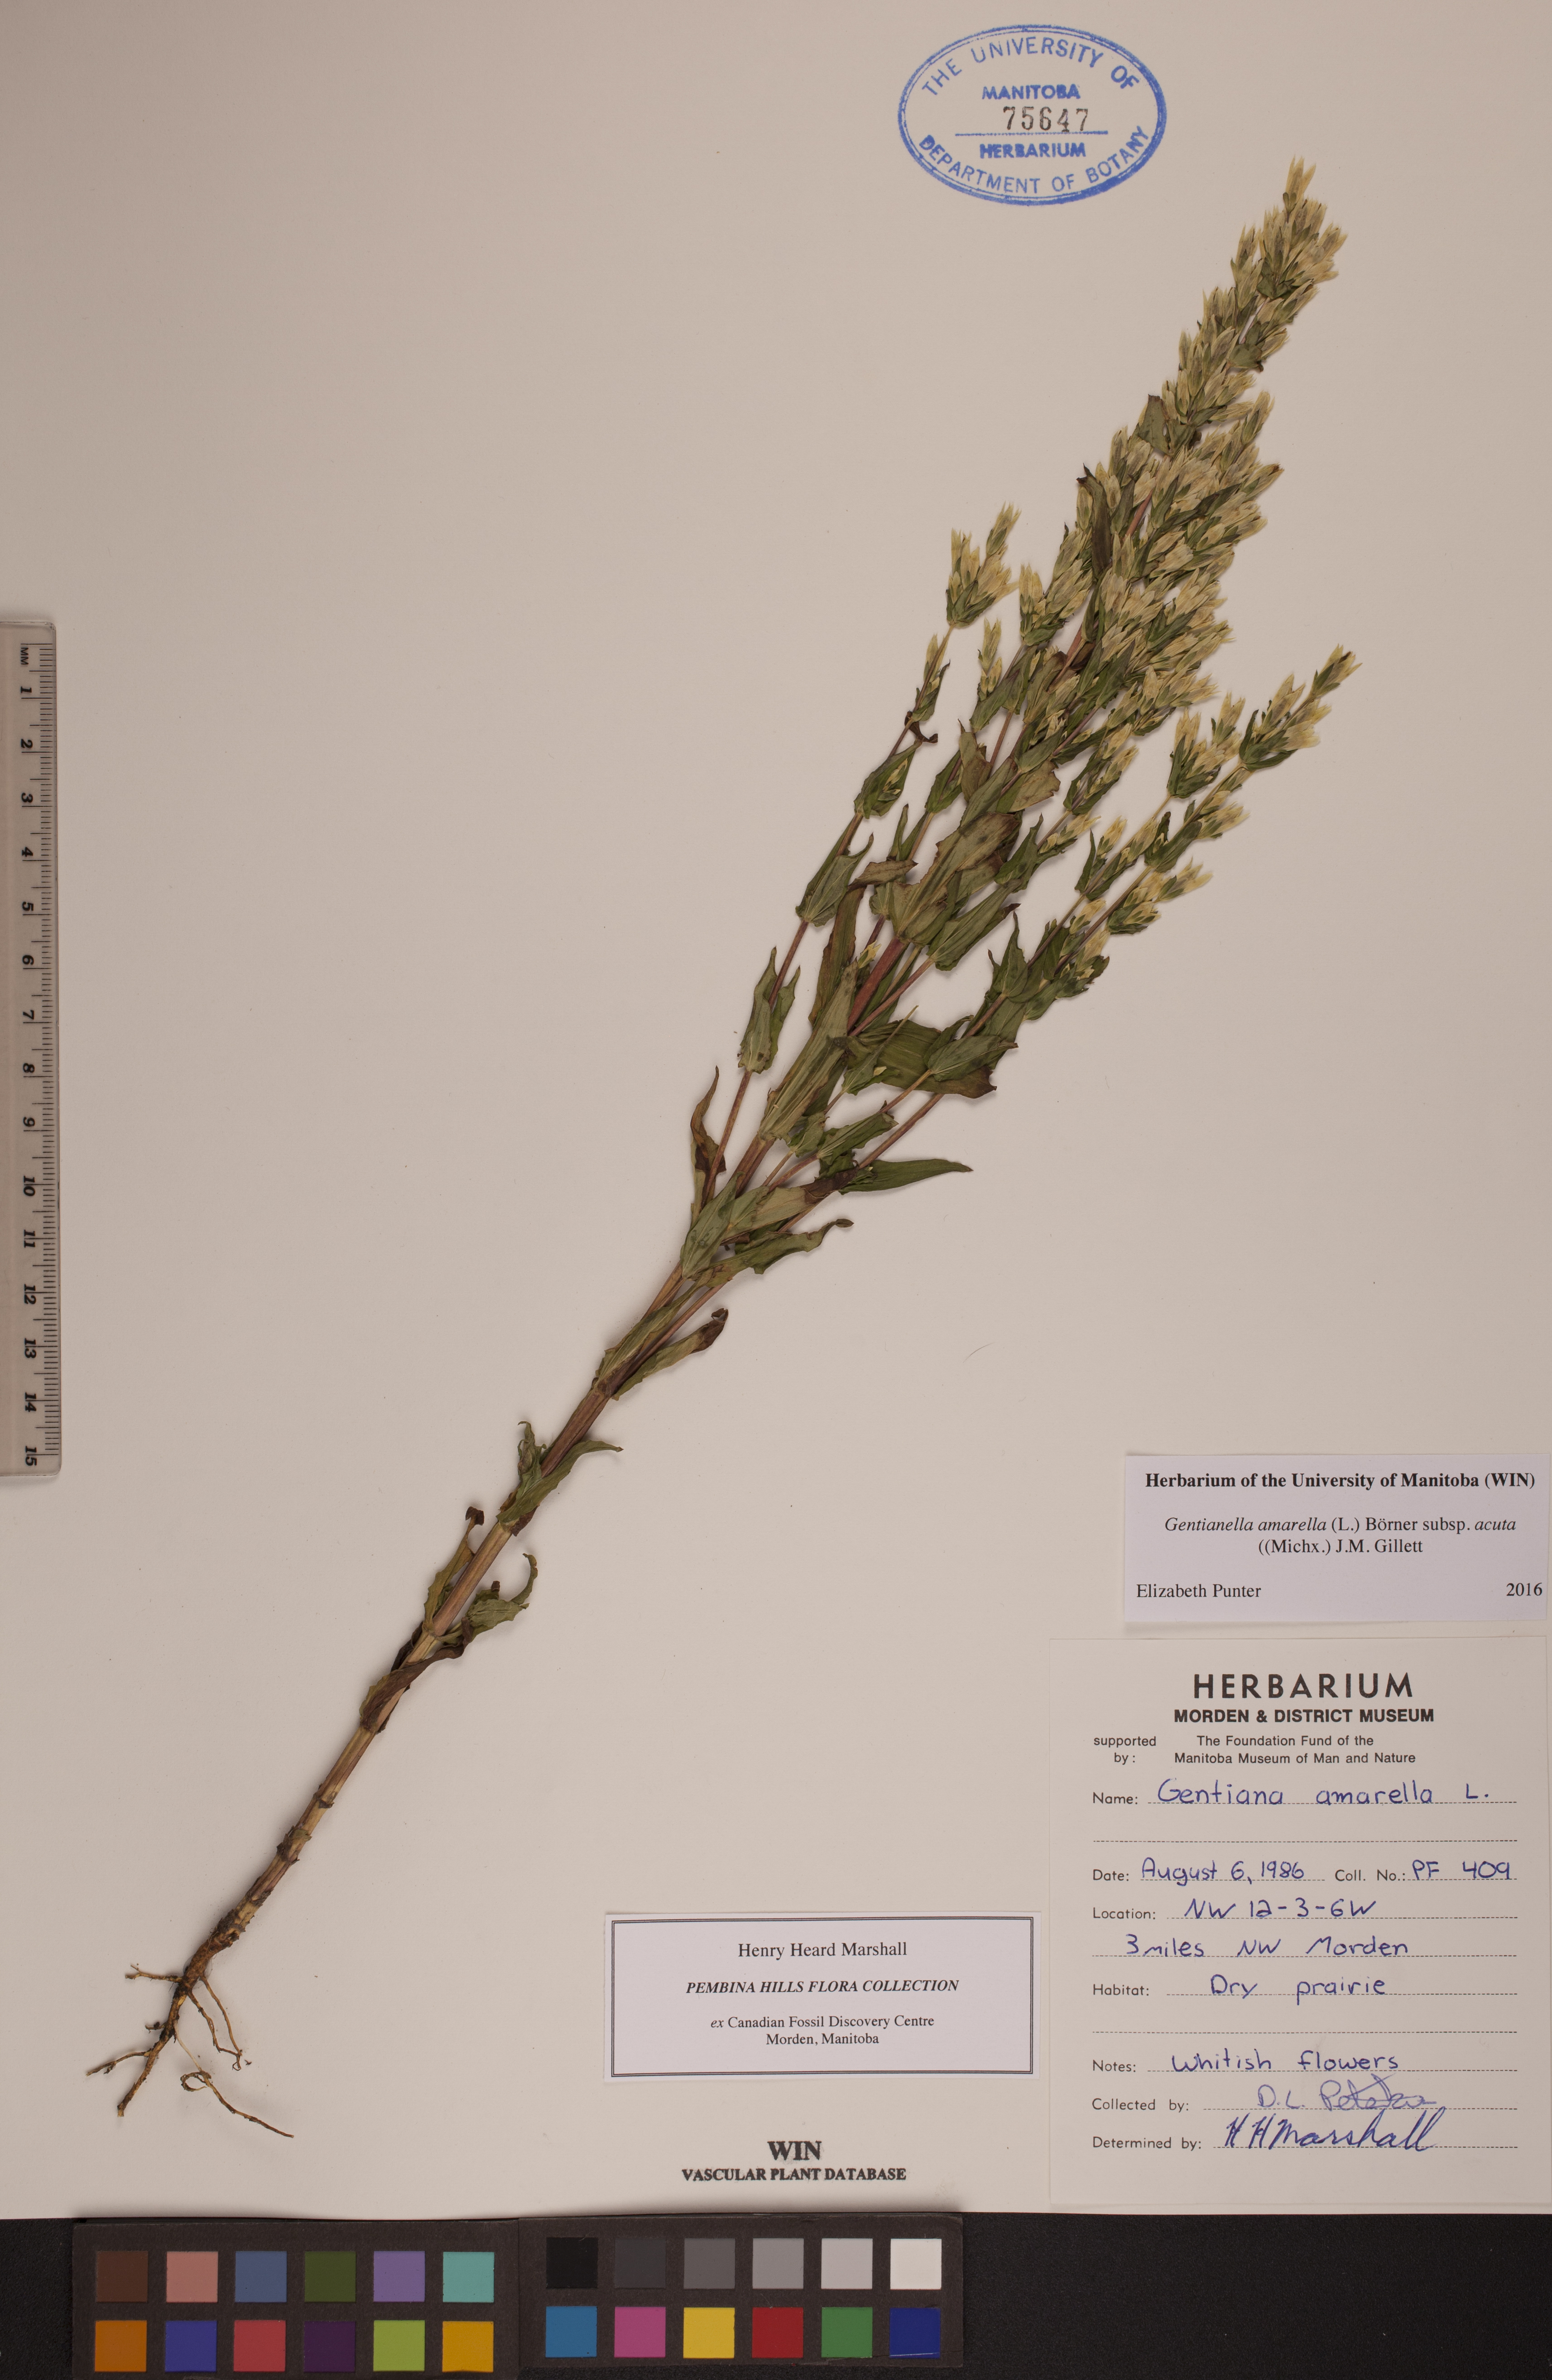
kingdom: Plantae
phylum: Tracheophyta
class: Magnoliopsida
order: Gentianales
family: Gentianaceae
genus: Gentianella
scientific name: Gentianella amarella
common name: Autumn gentian
